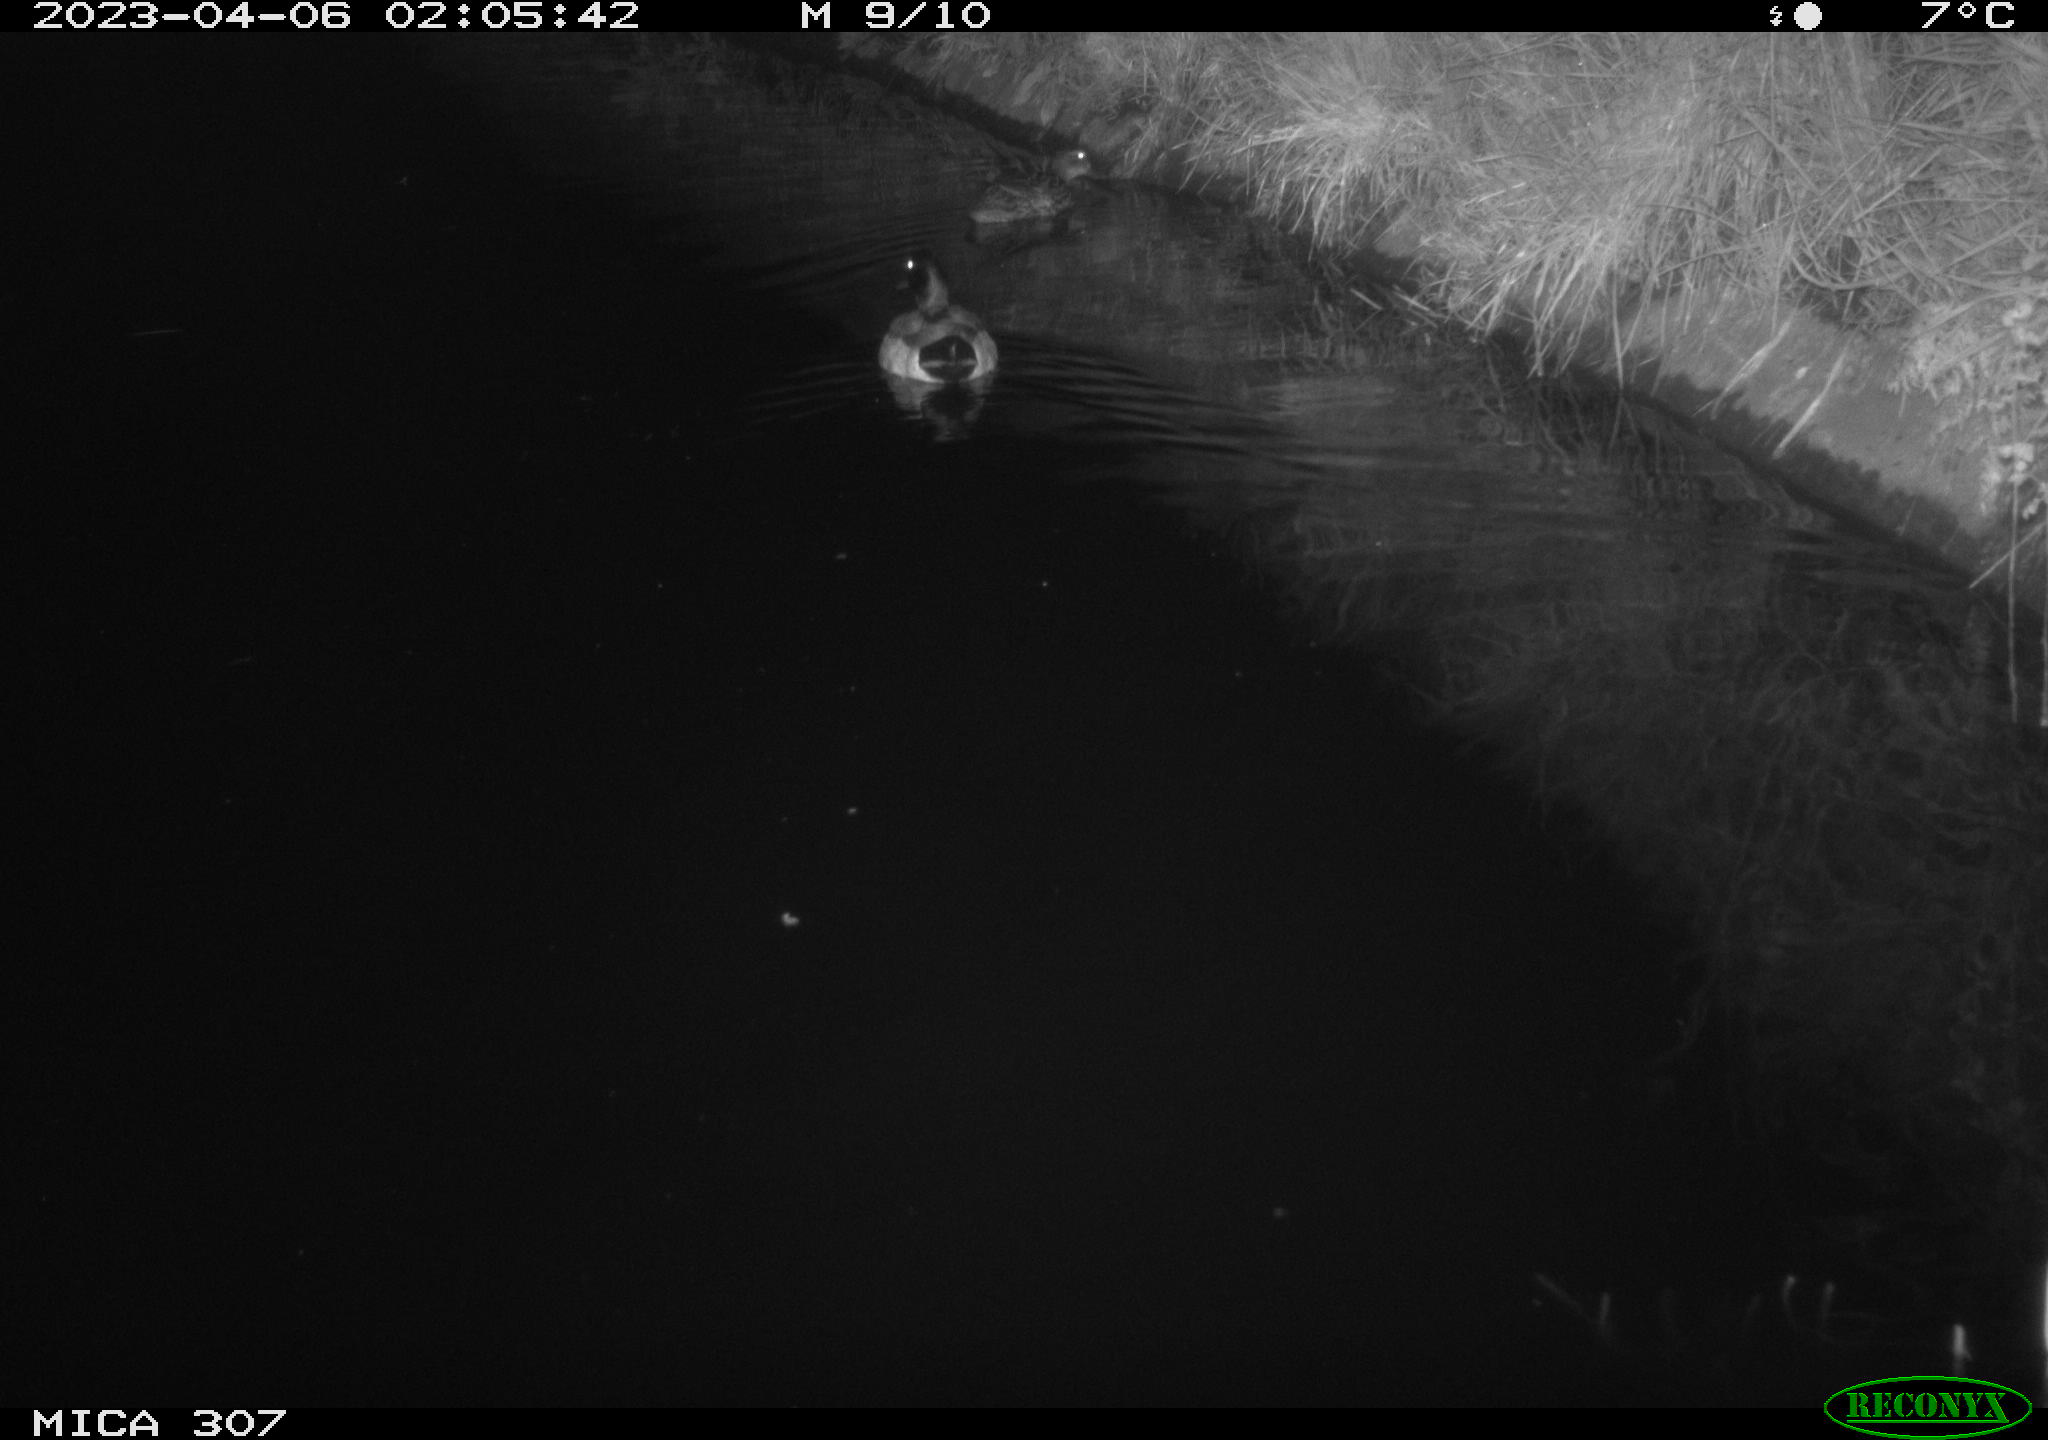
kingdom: Animalia
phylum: Chordata
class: Aves
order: Anseriformes
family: Anatidae
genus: Anas
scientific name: Anas
